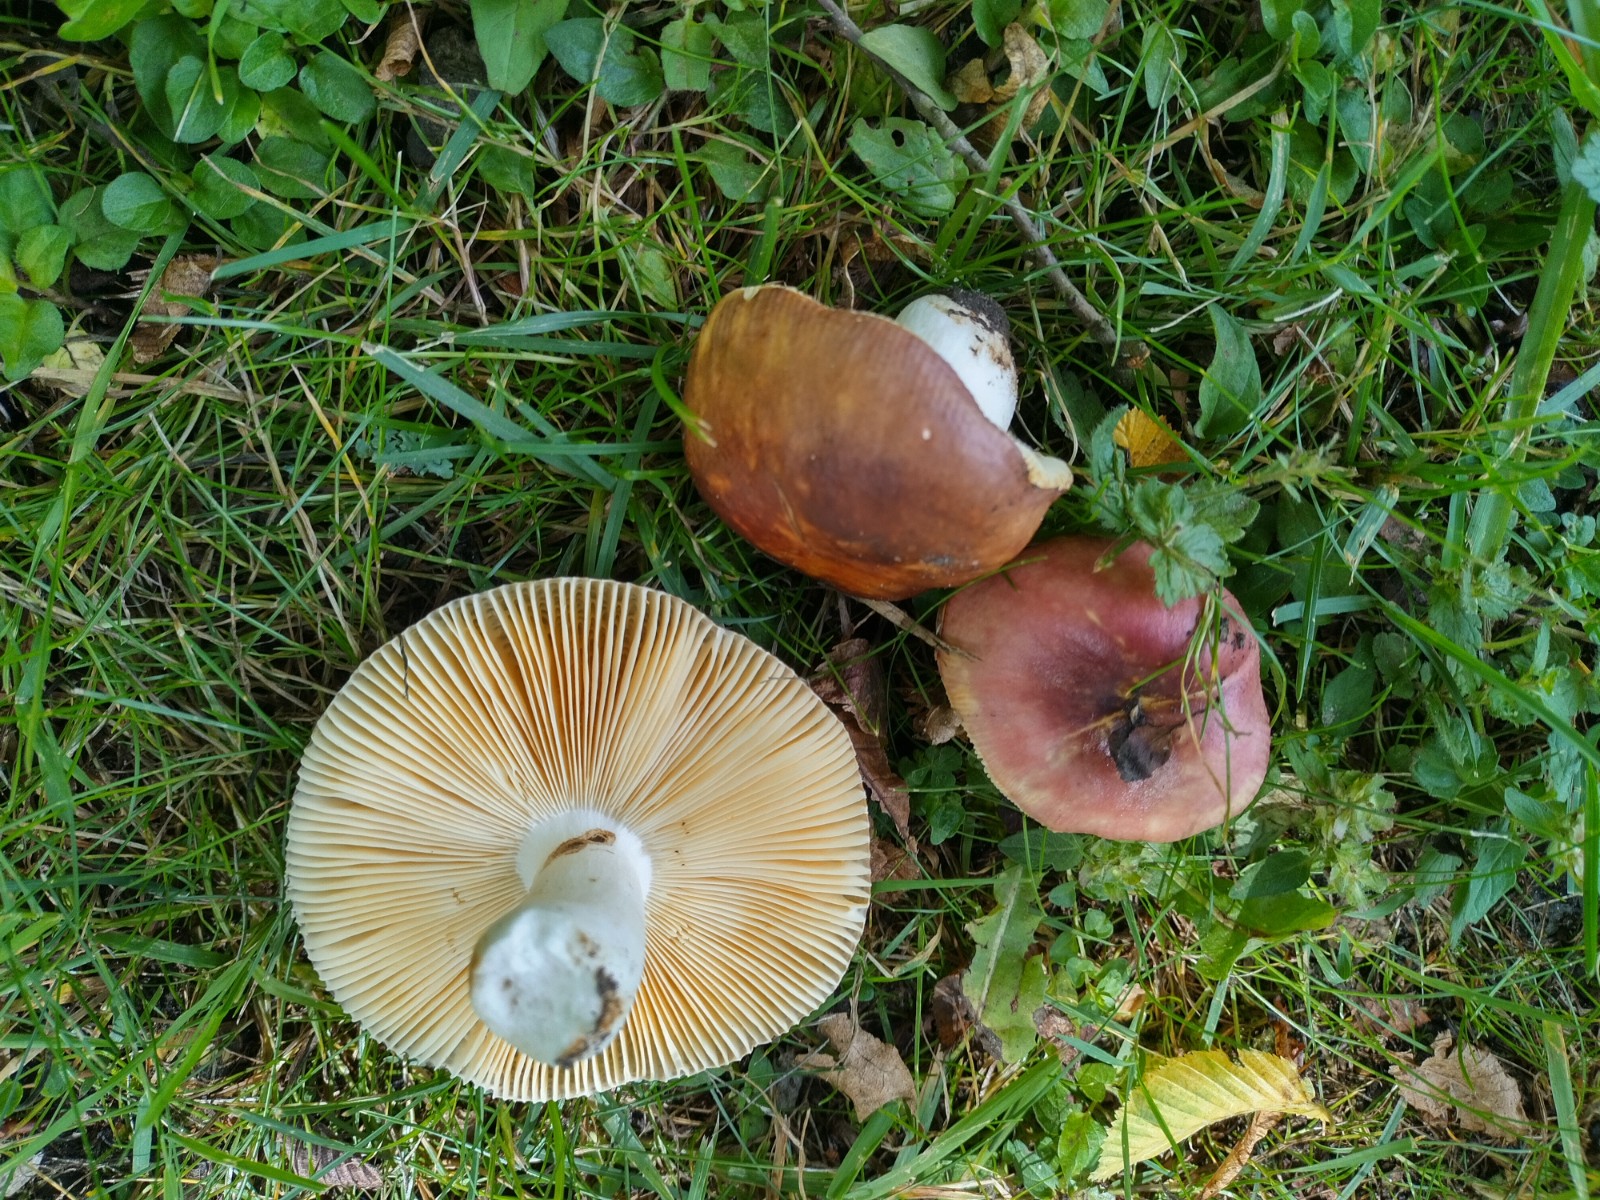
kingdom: Fungi
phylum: Basidiomycota
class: Agaricomycetes
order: Russulales
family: Russulaceae
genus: Russula
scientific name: Russula carpini
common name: avnbøg-skørhat
